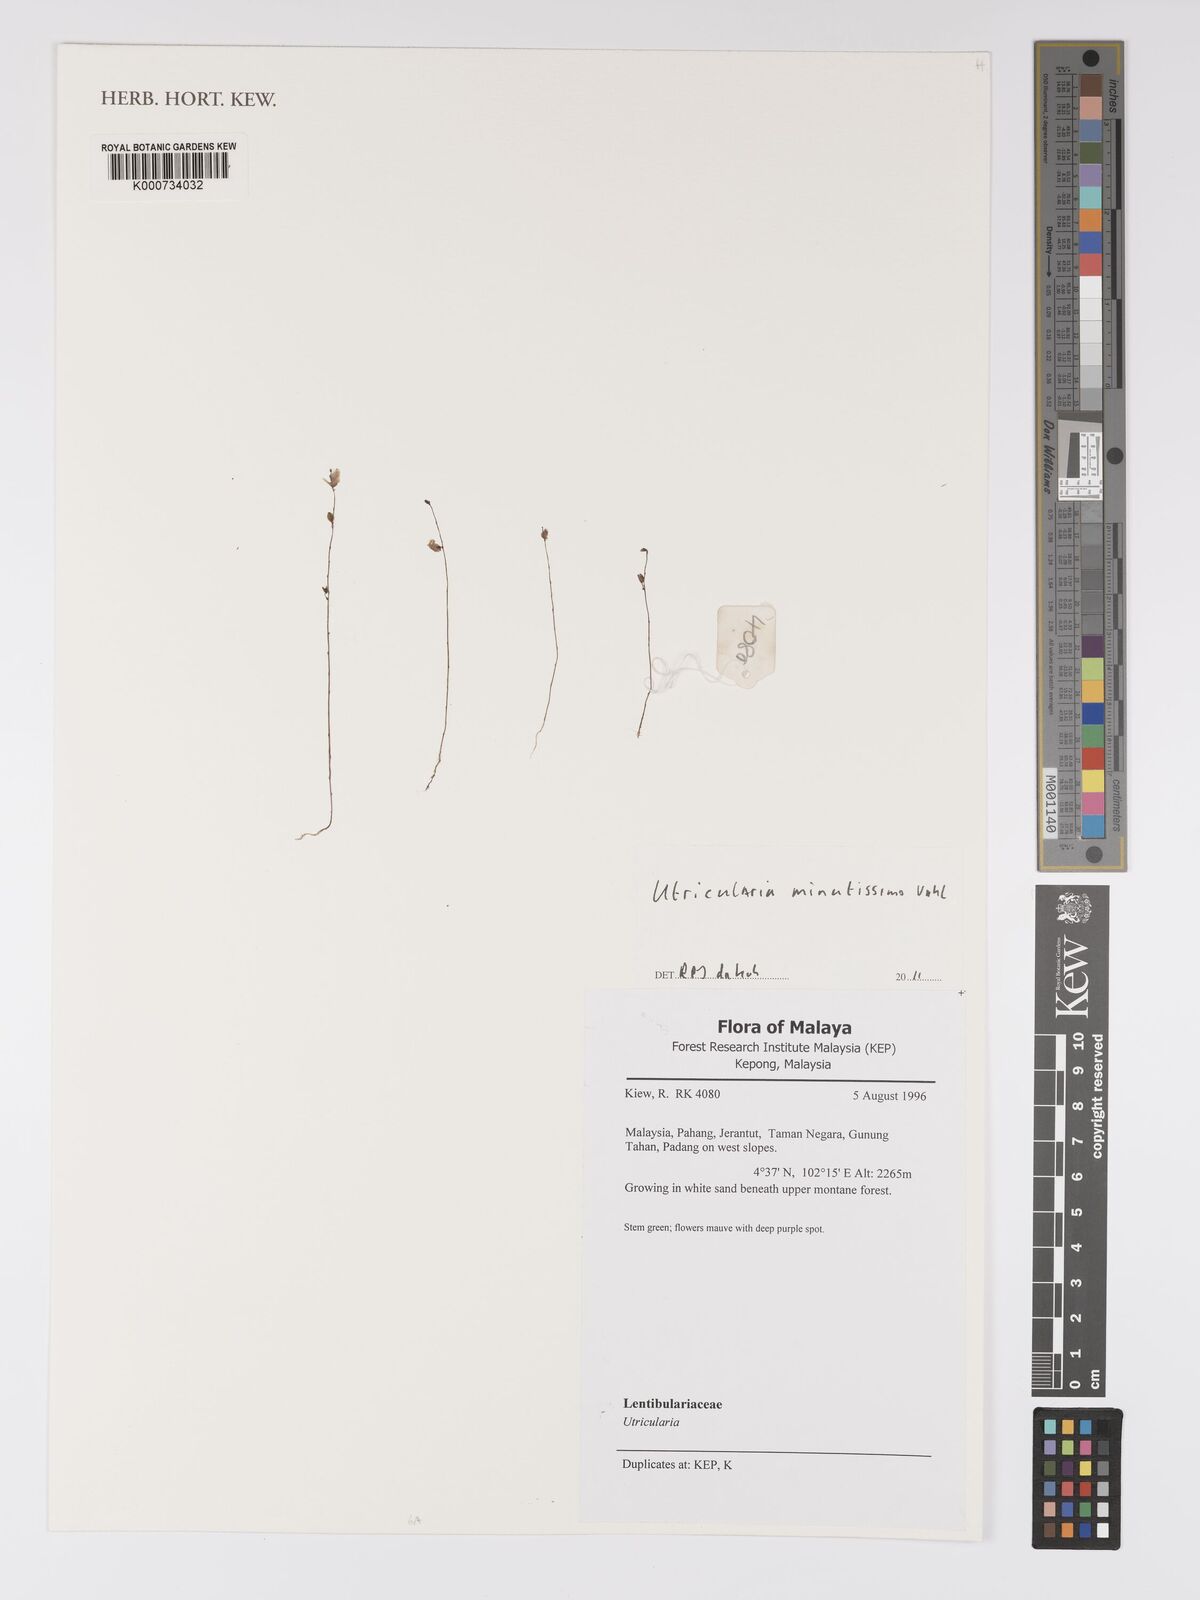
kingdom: Plantae
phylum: Tracheophyta
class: Magnoliopsida
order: Lamiales
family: Lentibulariaceae
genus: Utricularia
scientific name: Utricularia minutissima
